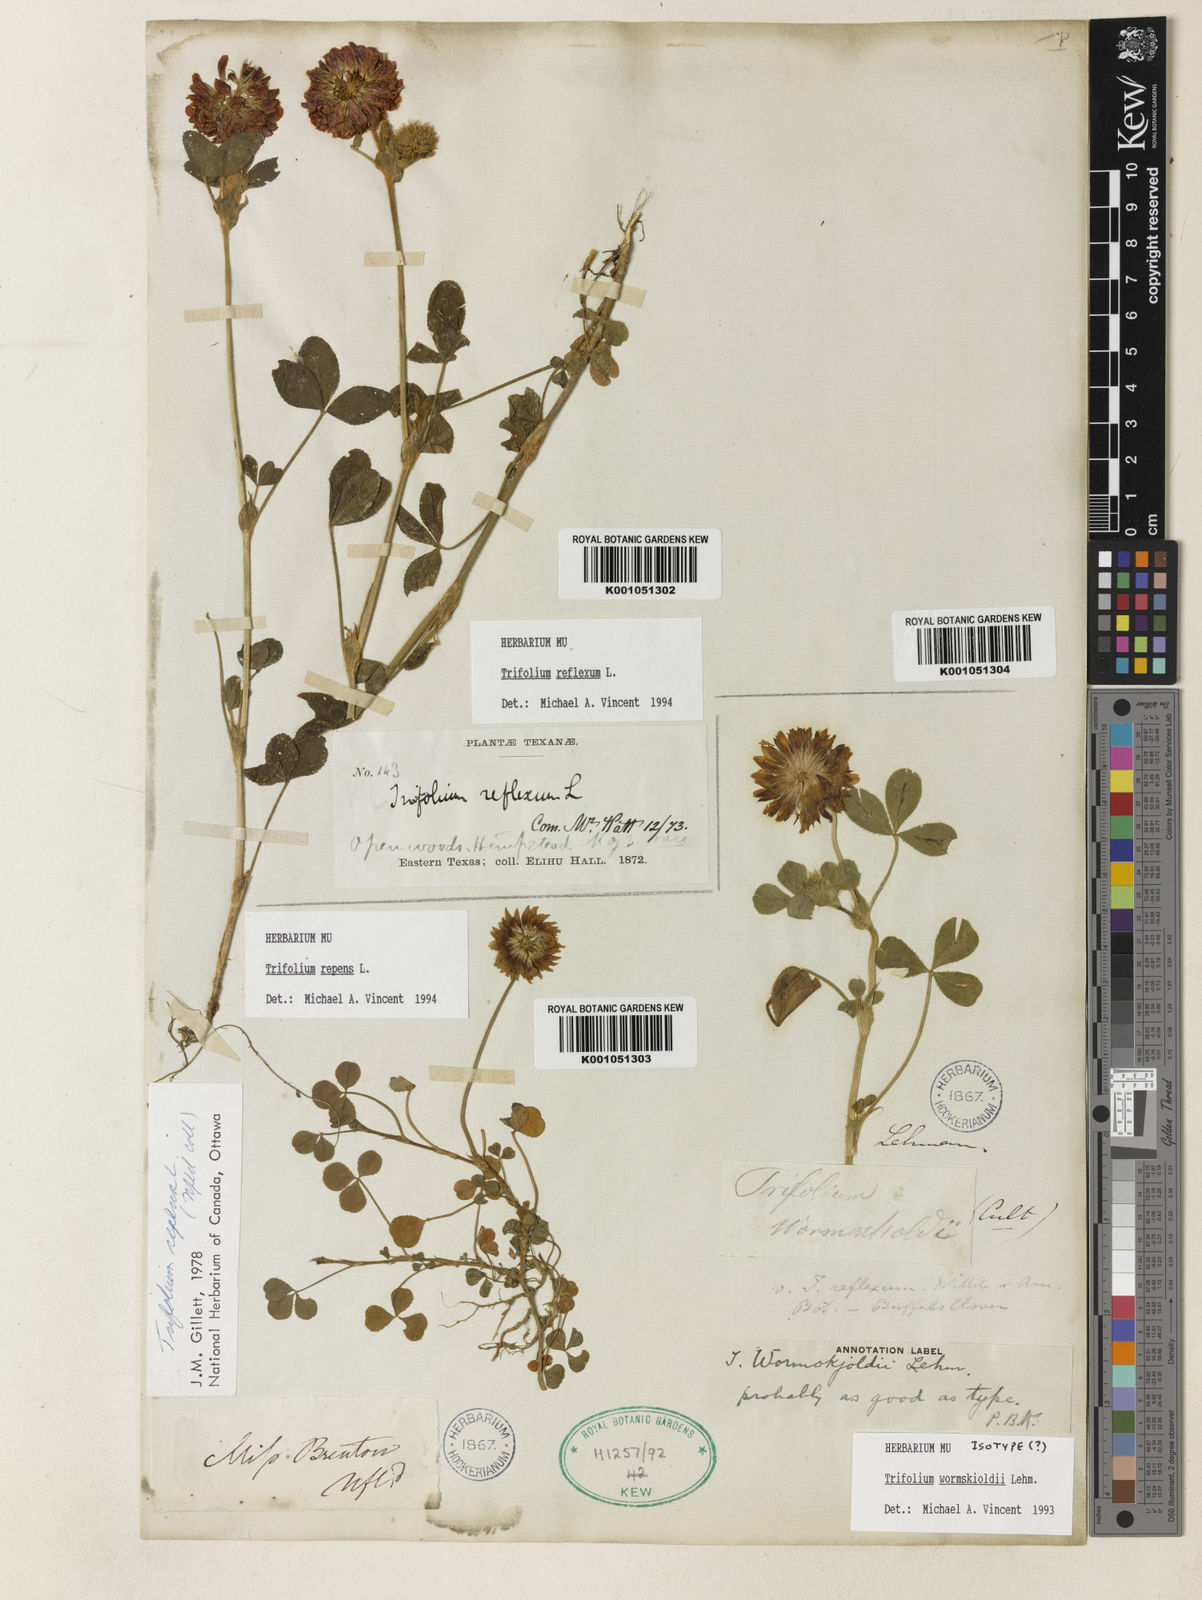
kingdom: Plantae
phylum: Tracheophyta
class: Magnoliopsida
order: Fabales
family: Fabaceae
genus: Trifolium
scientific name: Trifolium willdenovii
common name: Tomcat clover
